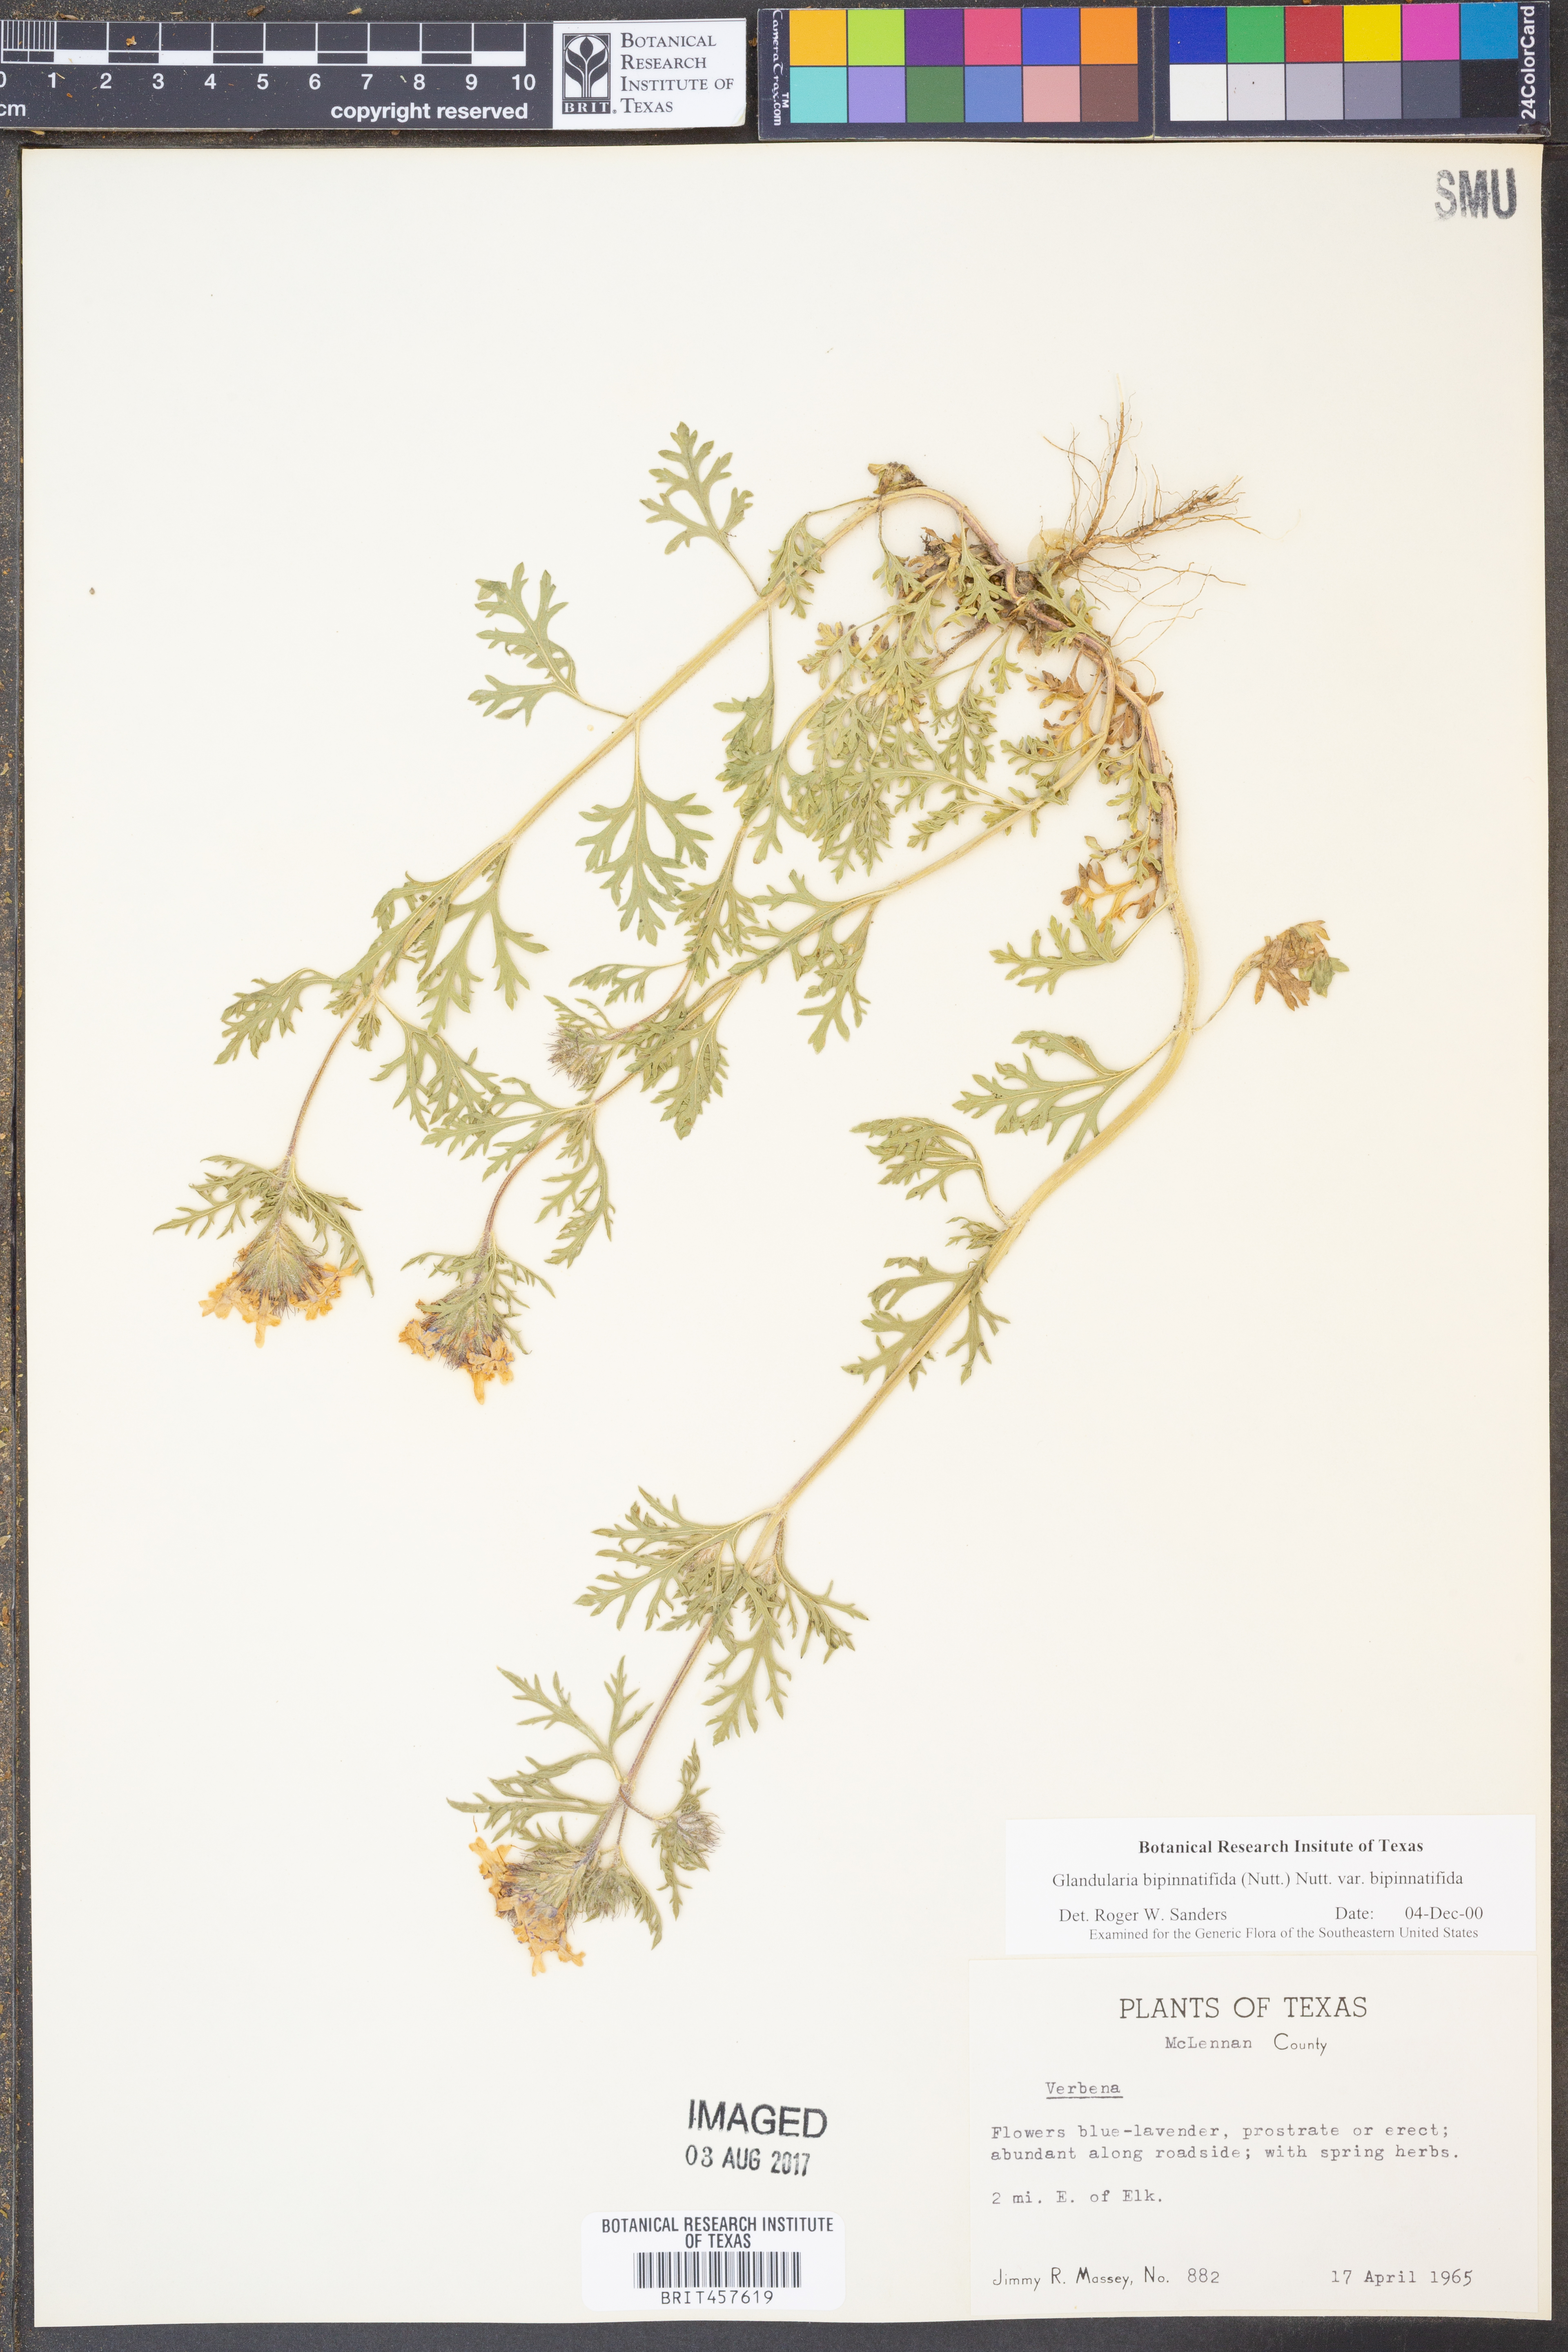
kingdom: Plantae
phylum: Tracheophyta
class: Magnoliopsida
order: Lamiales
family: Verbenaceae
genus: Verbena
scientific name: Verbena bipinnatifida
